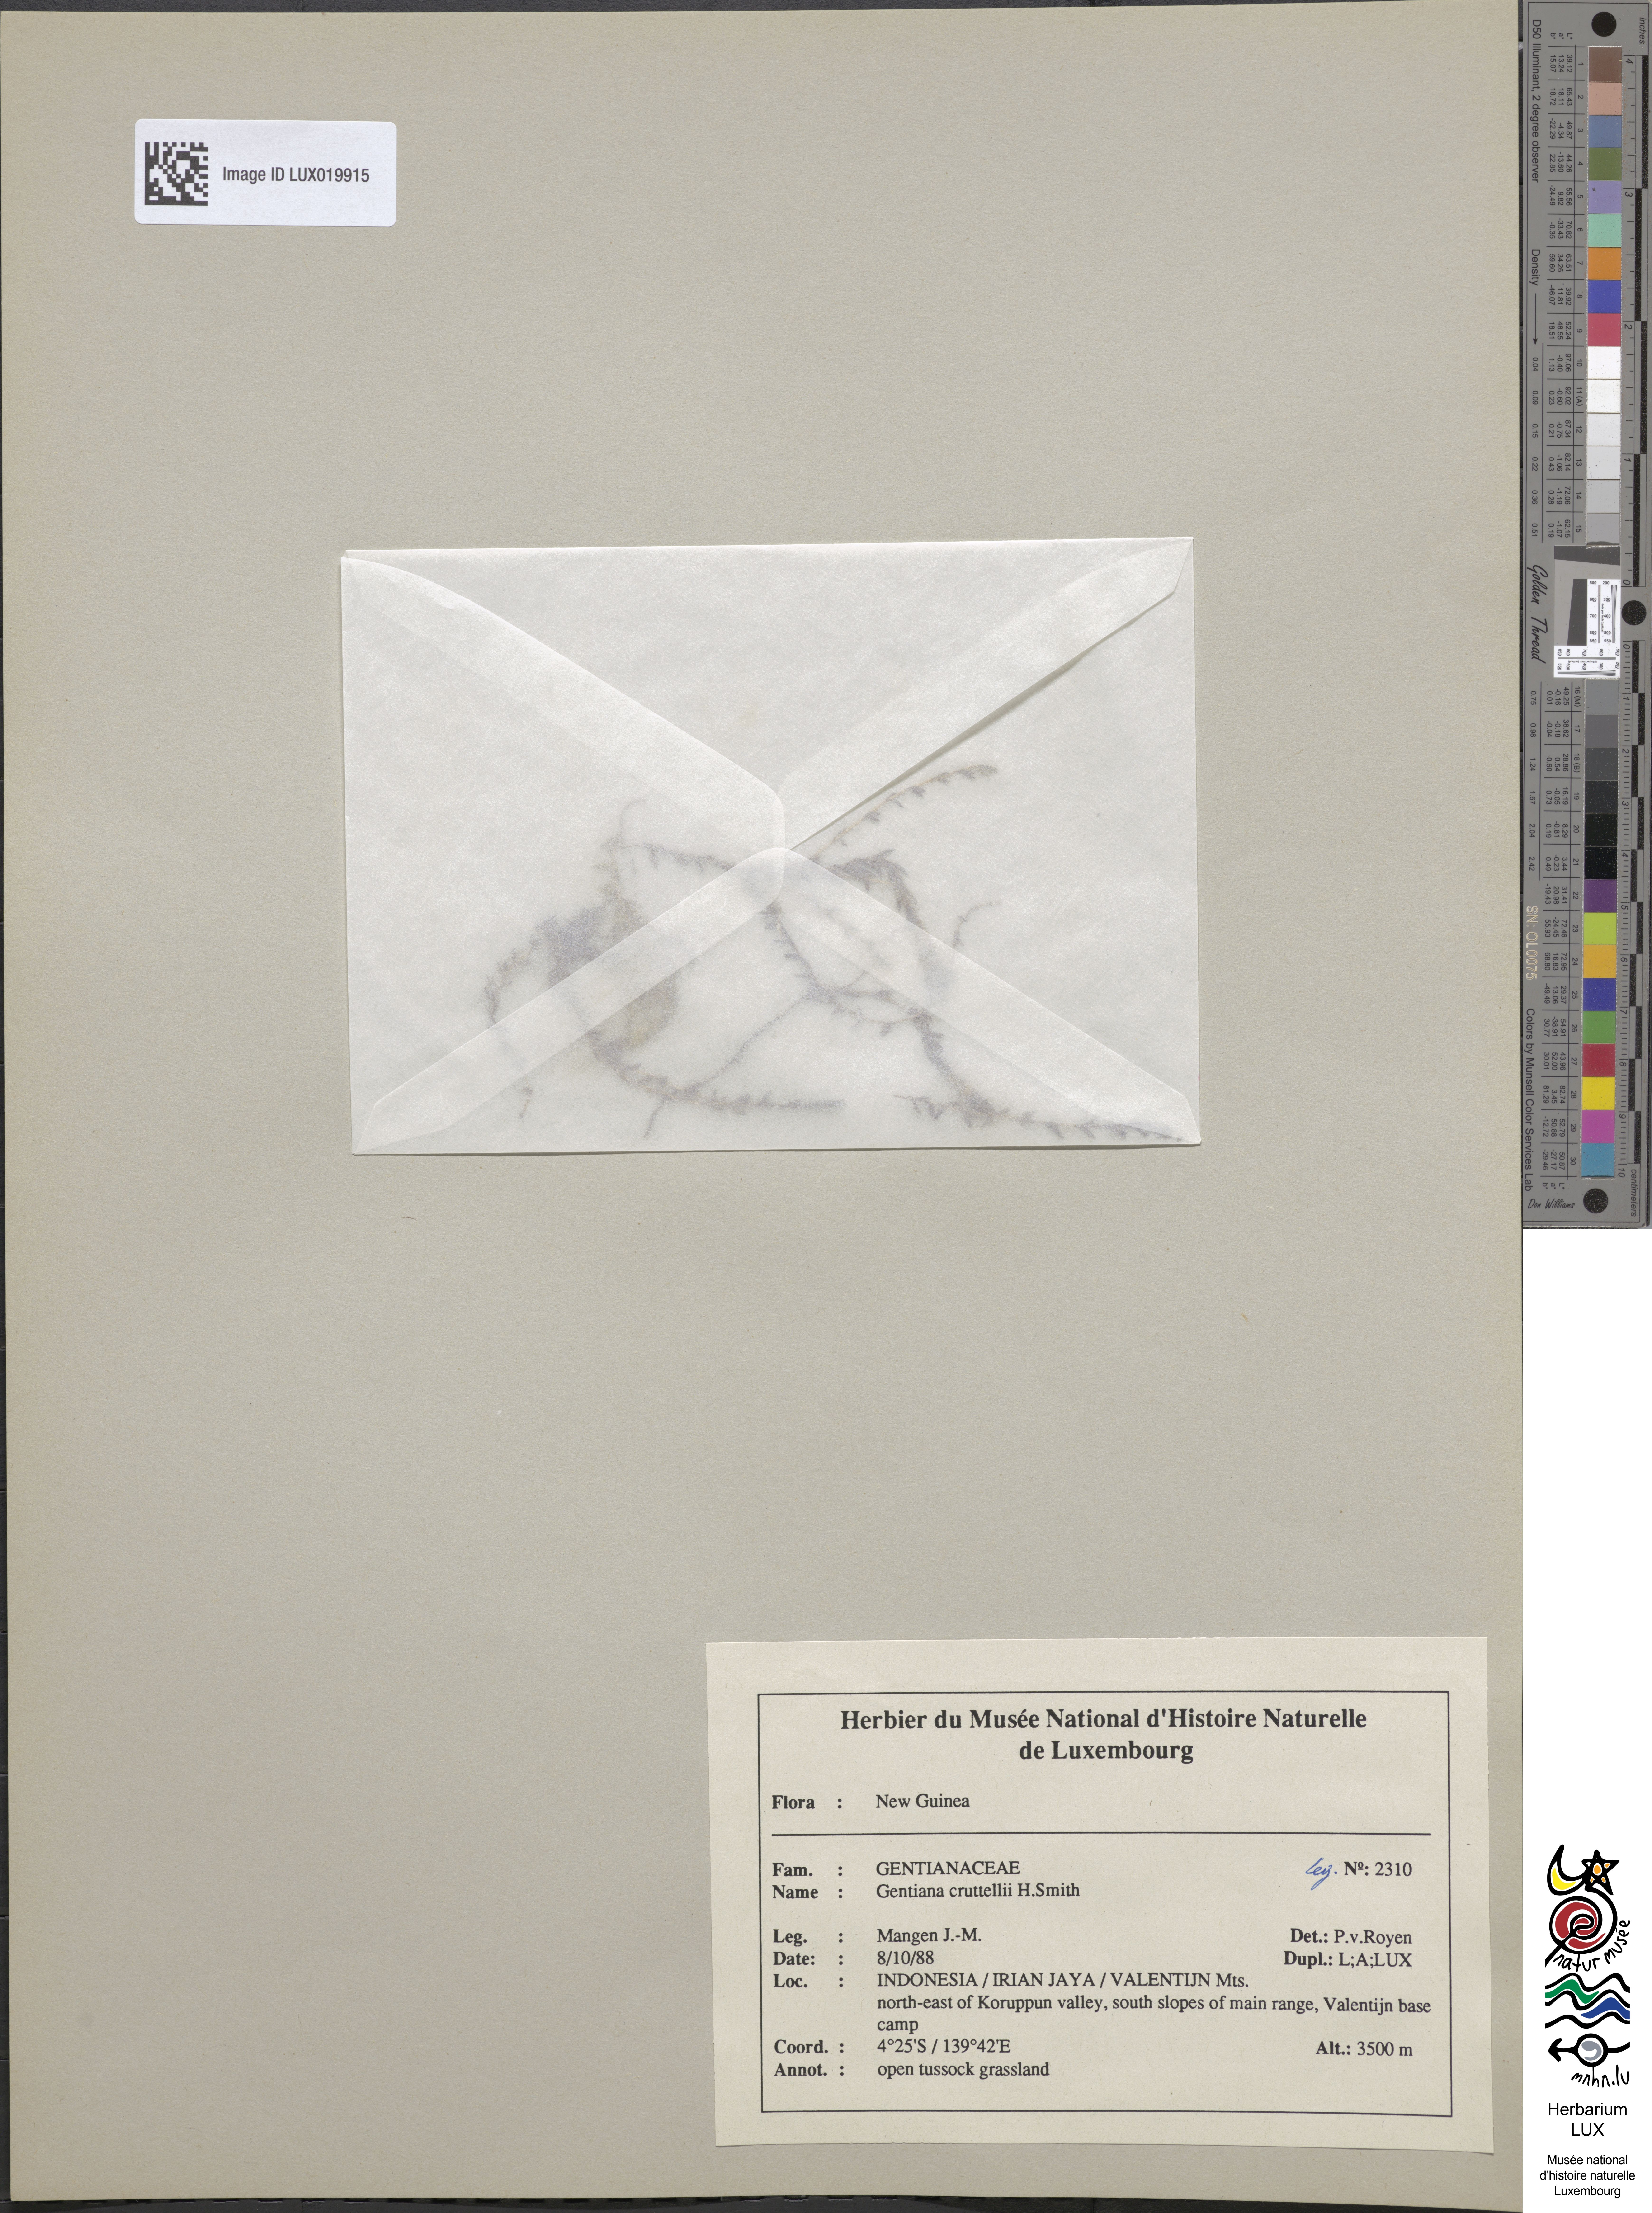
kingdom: Plantae
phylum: Tracheophyta
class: Magnoliopsida
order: Gentianales
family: Gentianaceae
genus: Gentiana
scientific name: Gentiana cruttwellii
